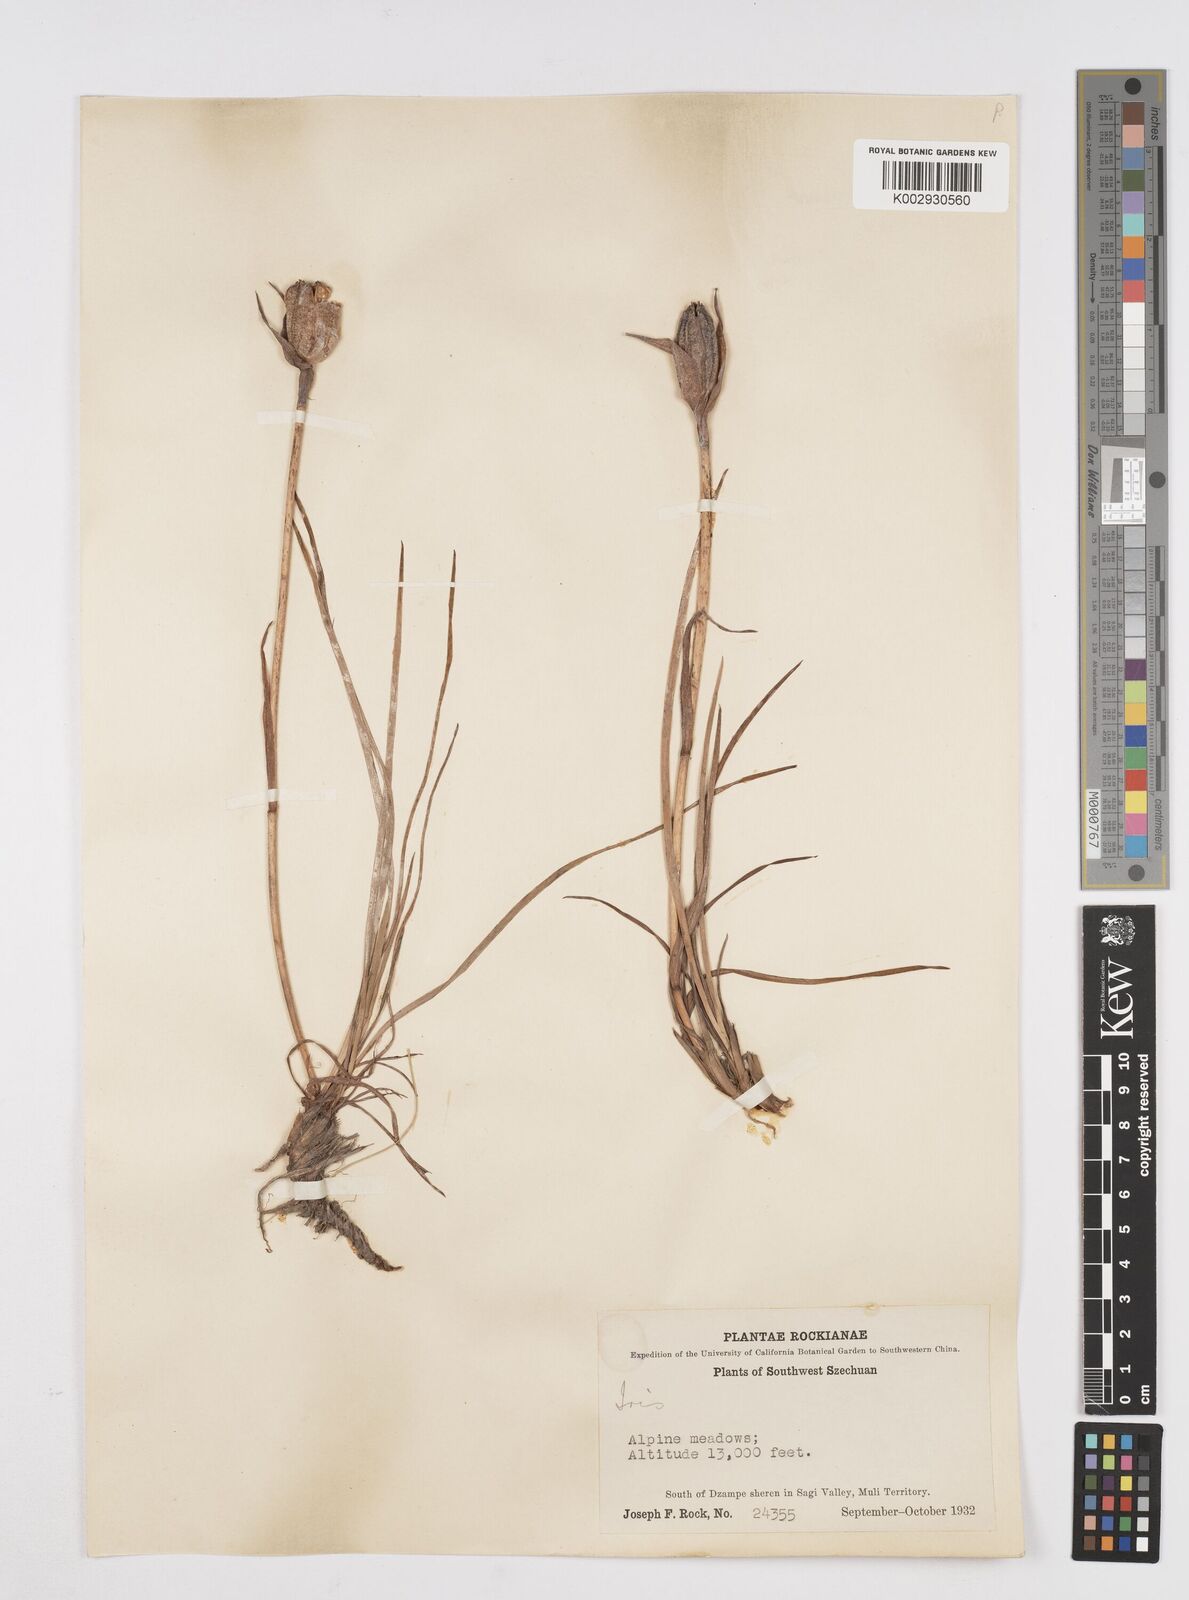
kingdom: Plantae
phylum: Tracheophyta
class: Liliopsida
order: Asparagales
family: Iridaceae
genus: Iris
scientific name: Iris bulleyana
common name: Southwest iris
